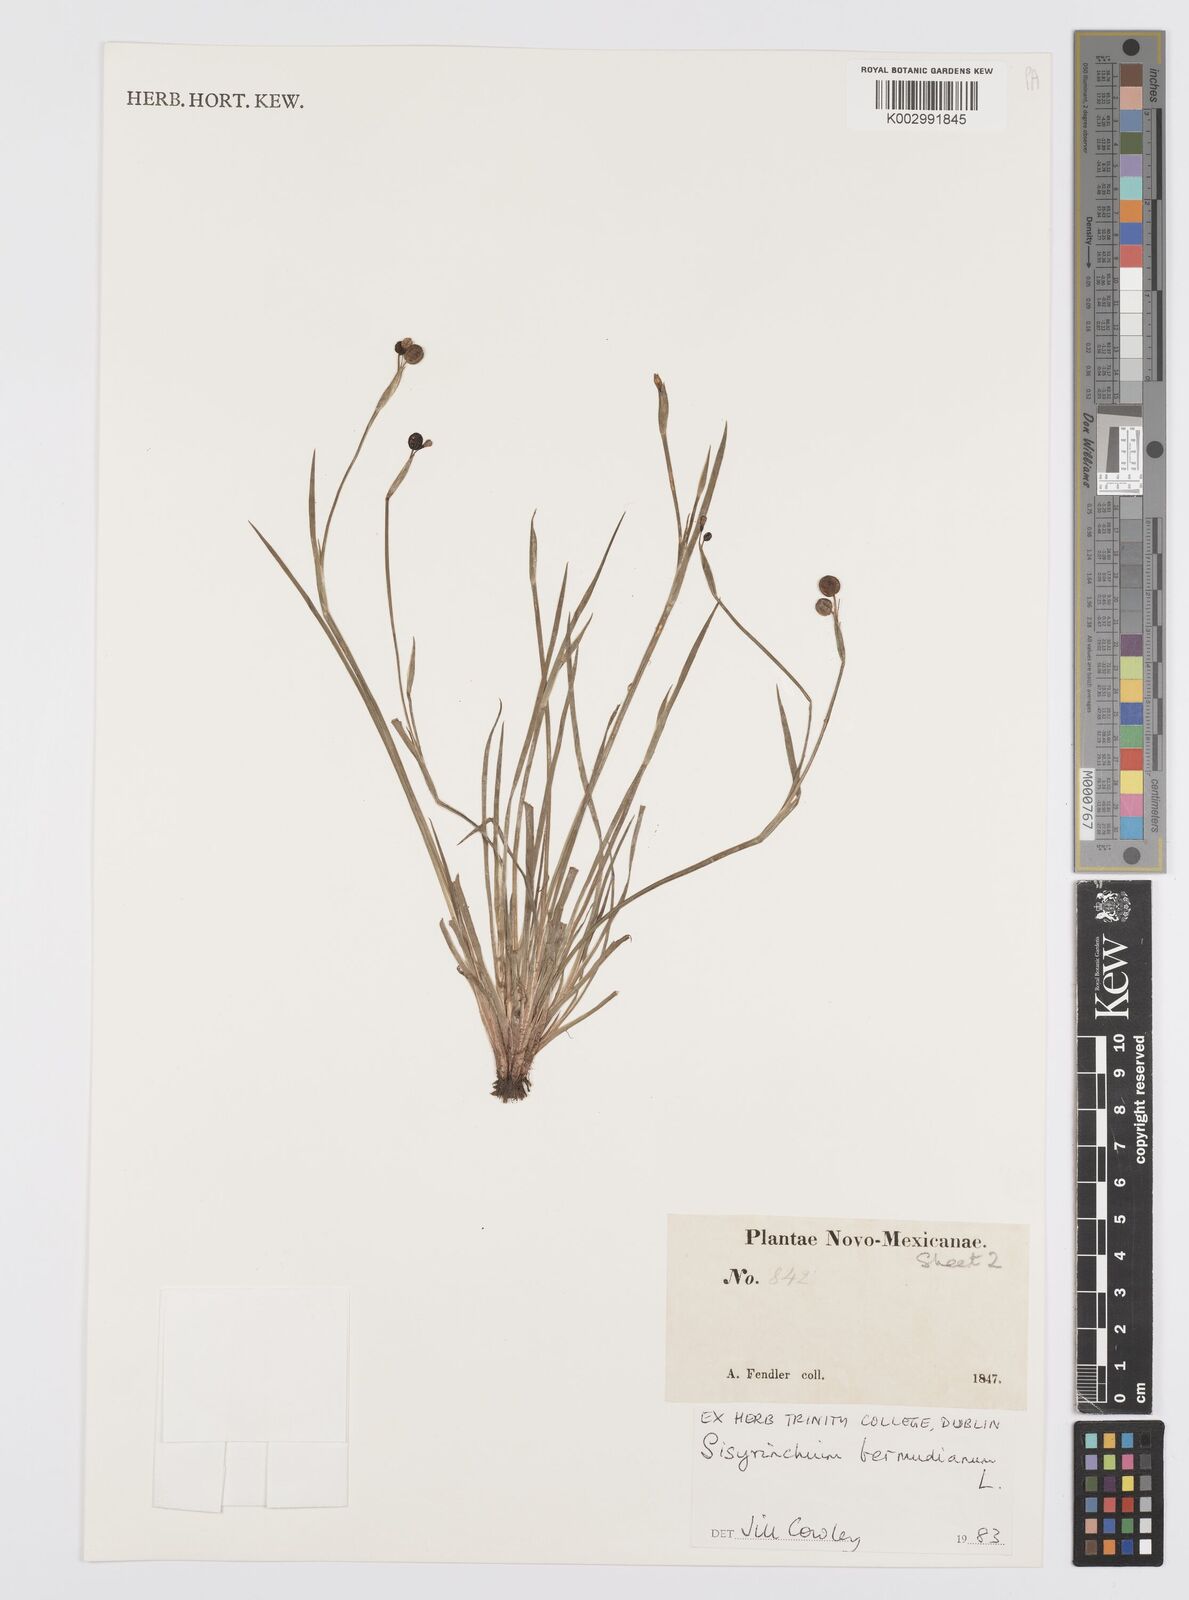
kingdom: Plantae
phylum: Tracheophyta
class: Liliopsida
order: Asparagales
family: Iridaceae
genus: Sisyrinchium
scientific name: Sisyrinchium bermudiana
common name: Blue-eyed-grass
